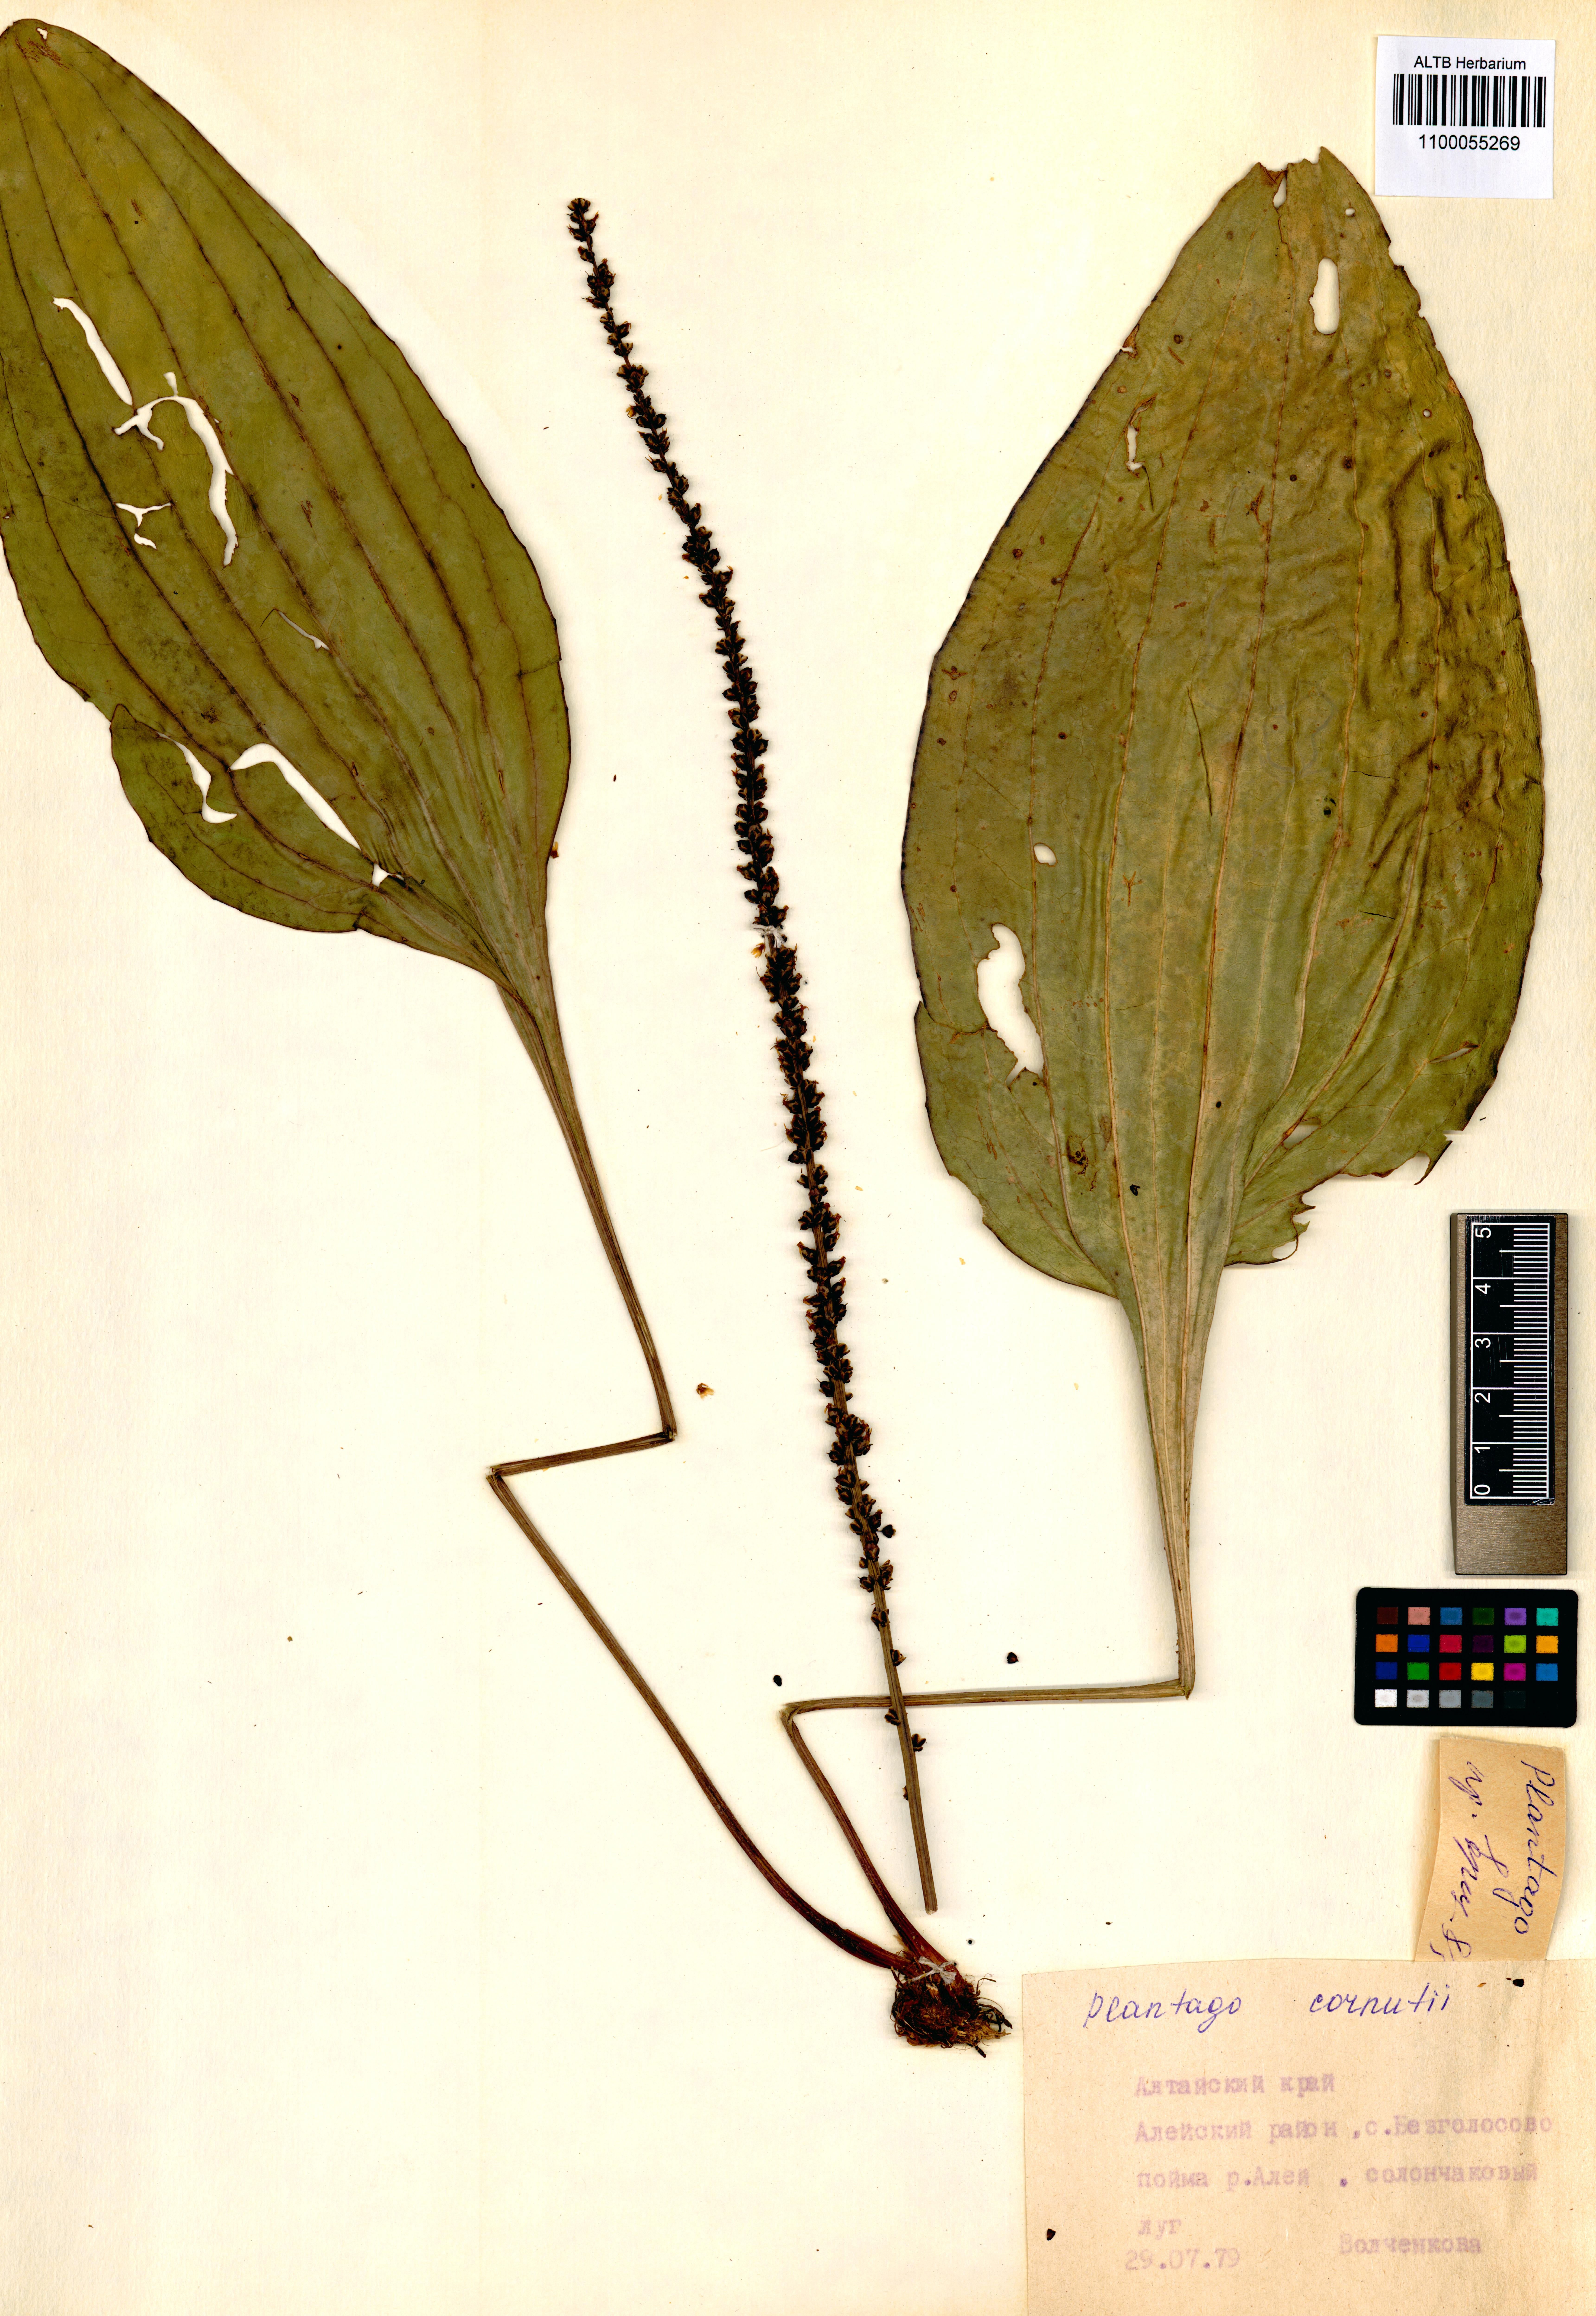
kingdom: Plantae
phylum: Tracheophyta
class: Magnoliopsida
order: Lamiales
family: Plantaginaceae
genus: Plantago
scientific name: Plantago cornuti
